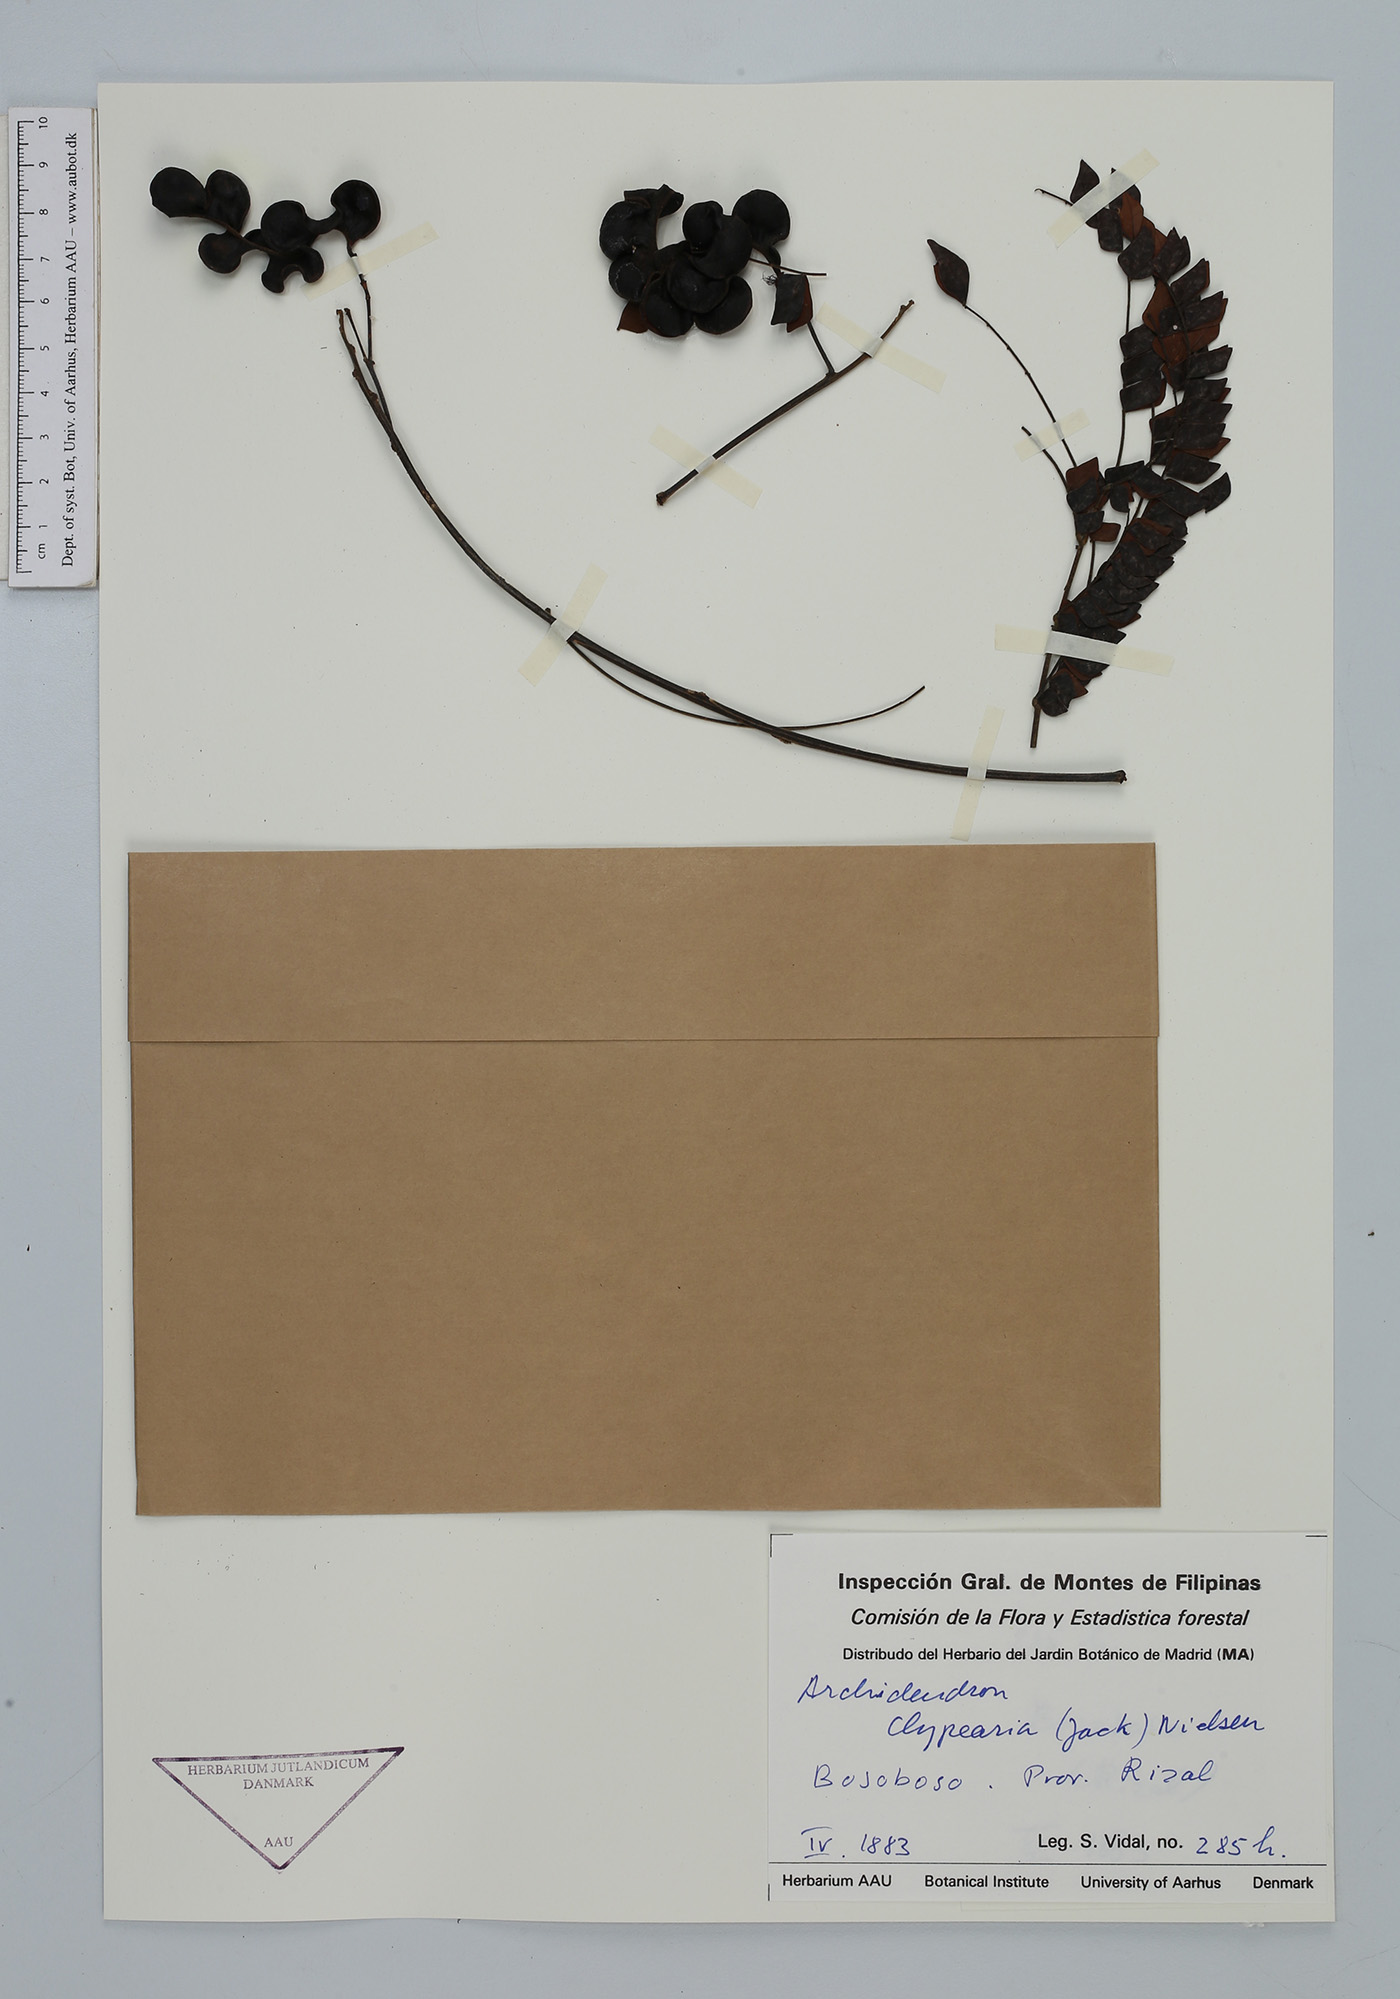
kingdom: Plantae
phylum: Tracheophyta
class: Magnoliopsida
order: Fabales
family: Fabaceae
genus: Archidendron
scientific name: Archidendron clypearia
